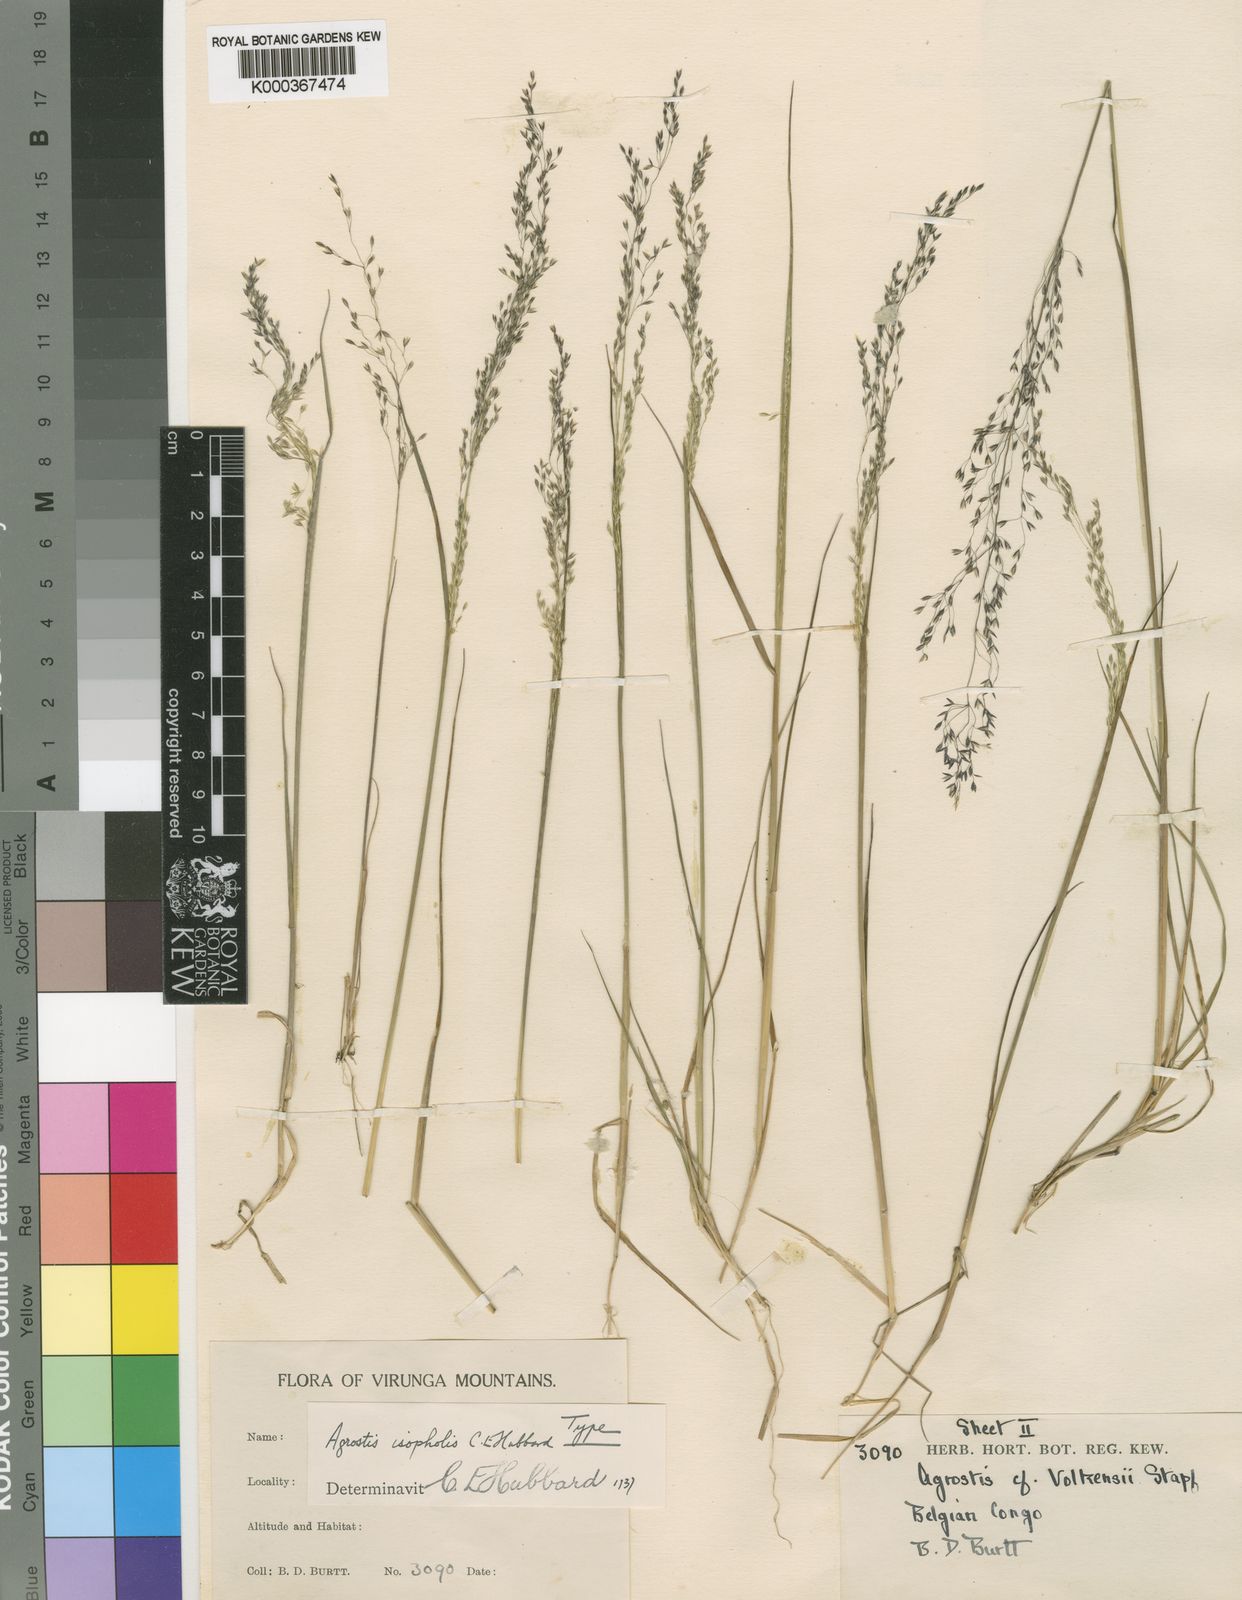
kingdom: Plantae
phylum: Tracheophyta
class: Liliopsida
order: Poales
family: Poaceae
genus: Agrostis
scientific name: Agrostis isopholis
